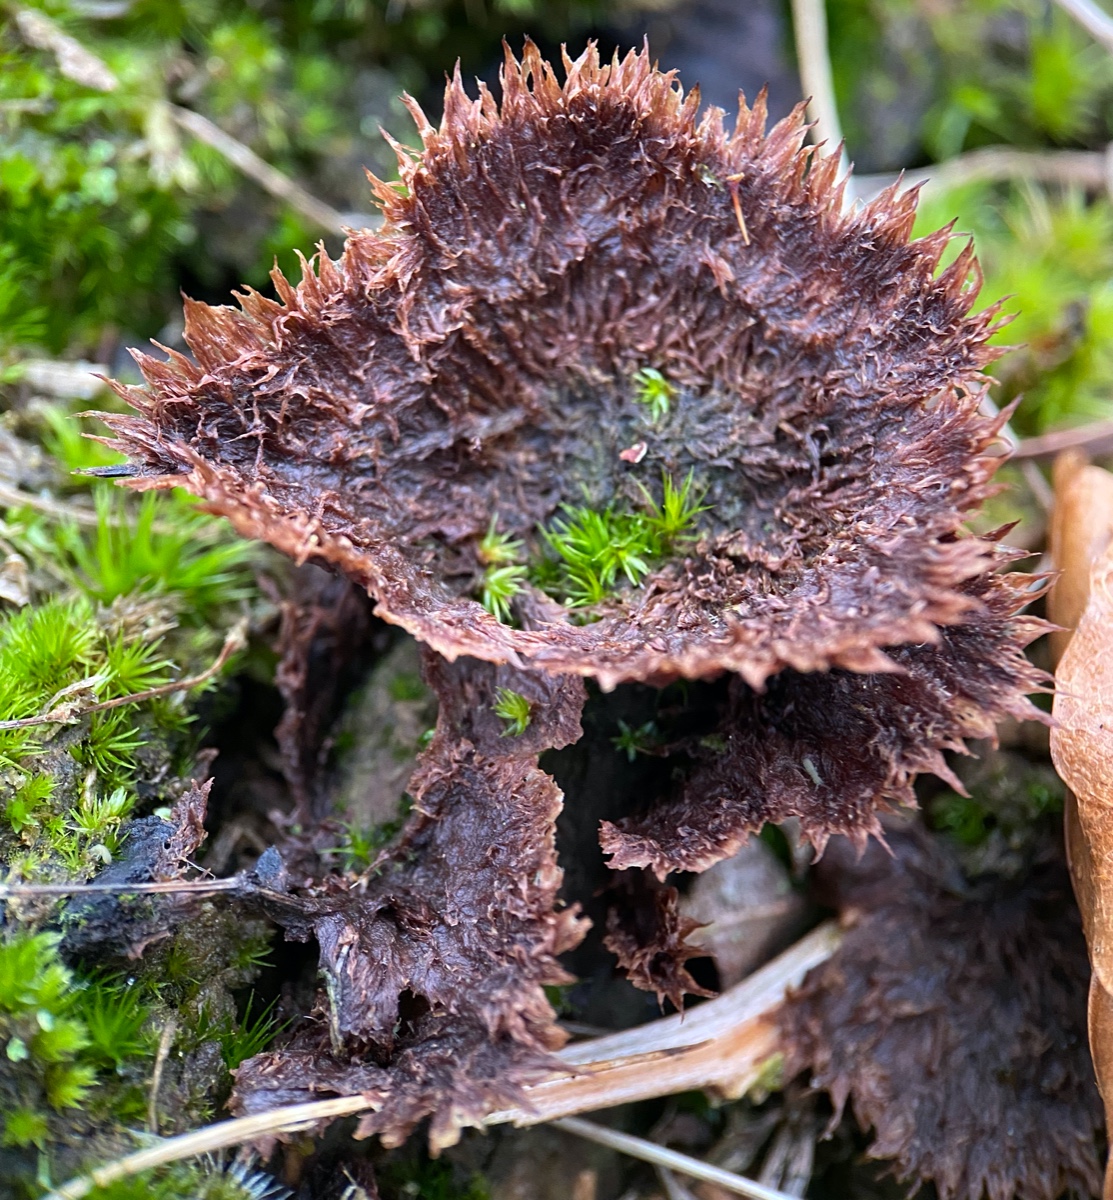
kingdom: Fungi
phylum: Basidiomycota
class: Agaricomycetes
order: Thelephorales
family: Thelephoraceae
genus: Thelephora
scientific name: Thelephora terrestris
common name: fliget frynsesvamp
